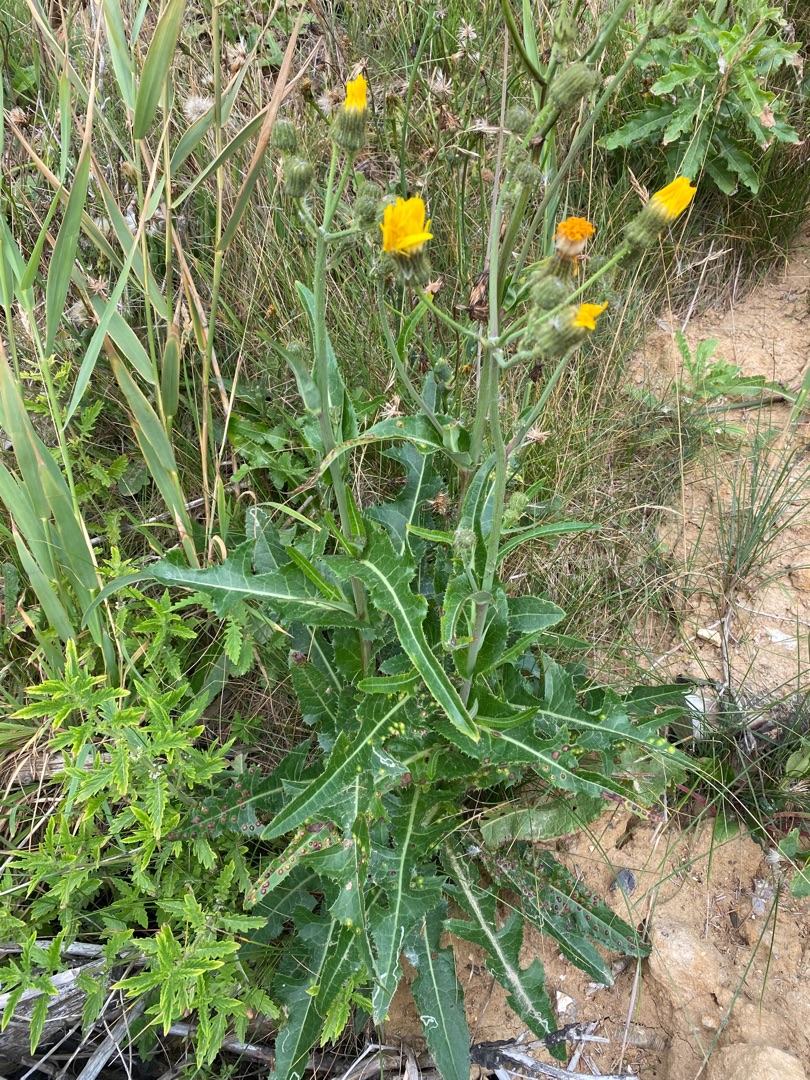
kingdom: Animalia
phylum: Arthropoda
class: Insecta
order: Diptera
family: Cecidomyiidae
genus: Cystiphora
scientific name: Cystiphora sonchi
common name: Svineblæregalmyg
